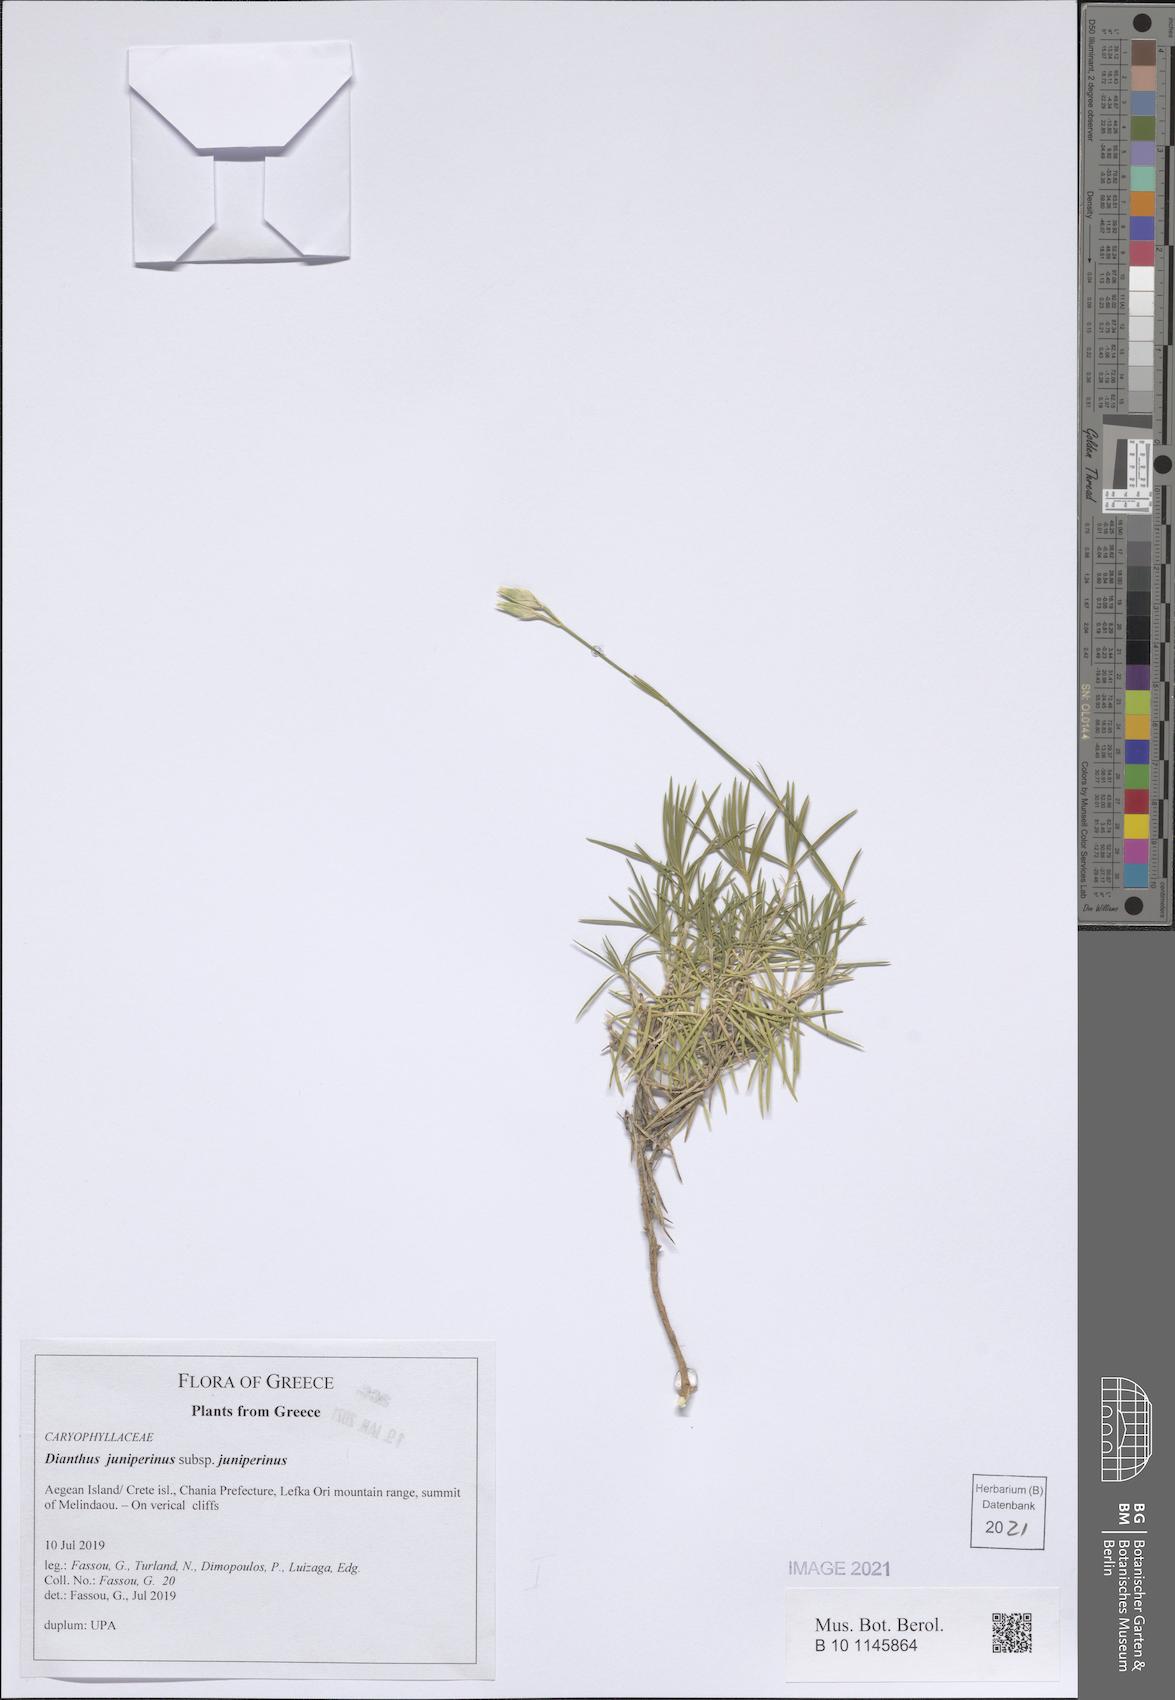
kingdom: Plantae
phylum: Tracheophyta
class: Magnoliopsida
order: Caryophyllales
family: Caryophyllaceae
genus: Dianthus
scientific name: Dianthus juniperinus
